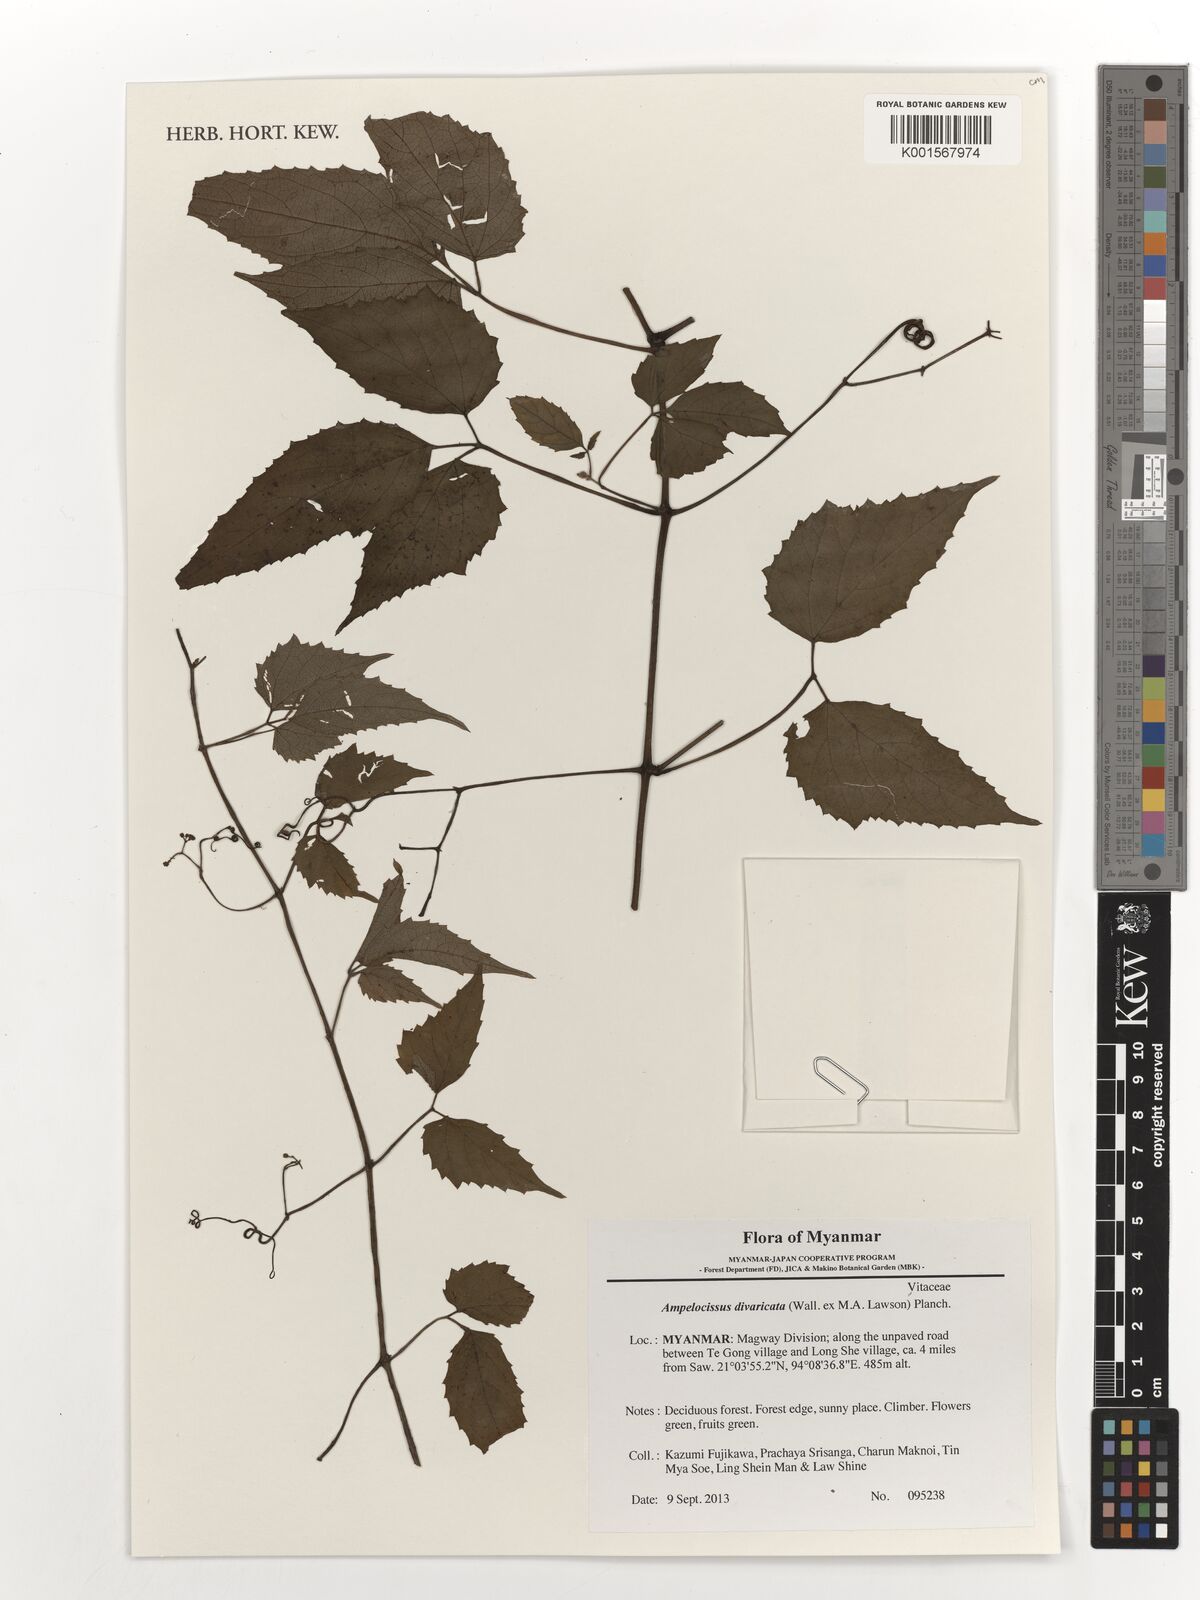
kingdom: Plantae
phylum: Tracheophyta
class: Magnoliopsida
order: Vitales
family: Vitaceae
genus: Ampelocissus
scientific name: Ampelocissus divaricata
